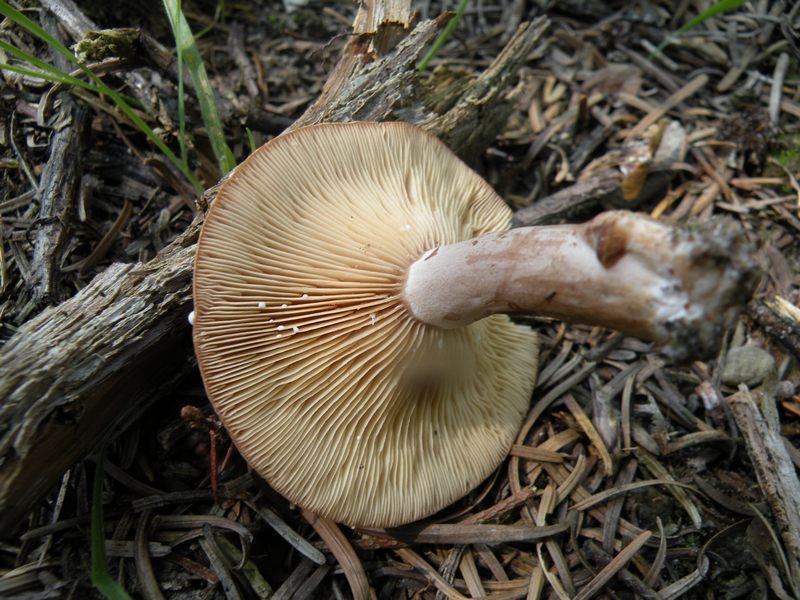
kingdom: Fungi
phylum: Basidiomycota
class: Agaricomycetes
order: Russulales
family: Russulaceae
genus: Lactarius
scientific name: Lactarius mammosus
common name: kokosbrun mælkehat
